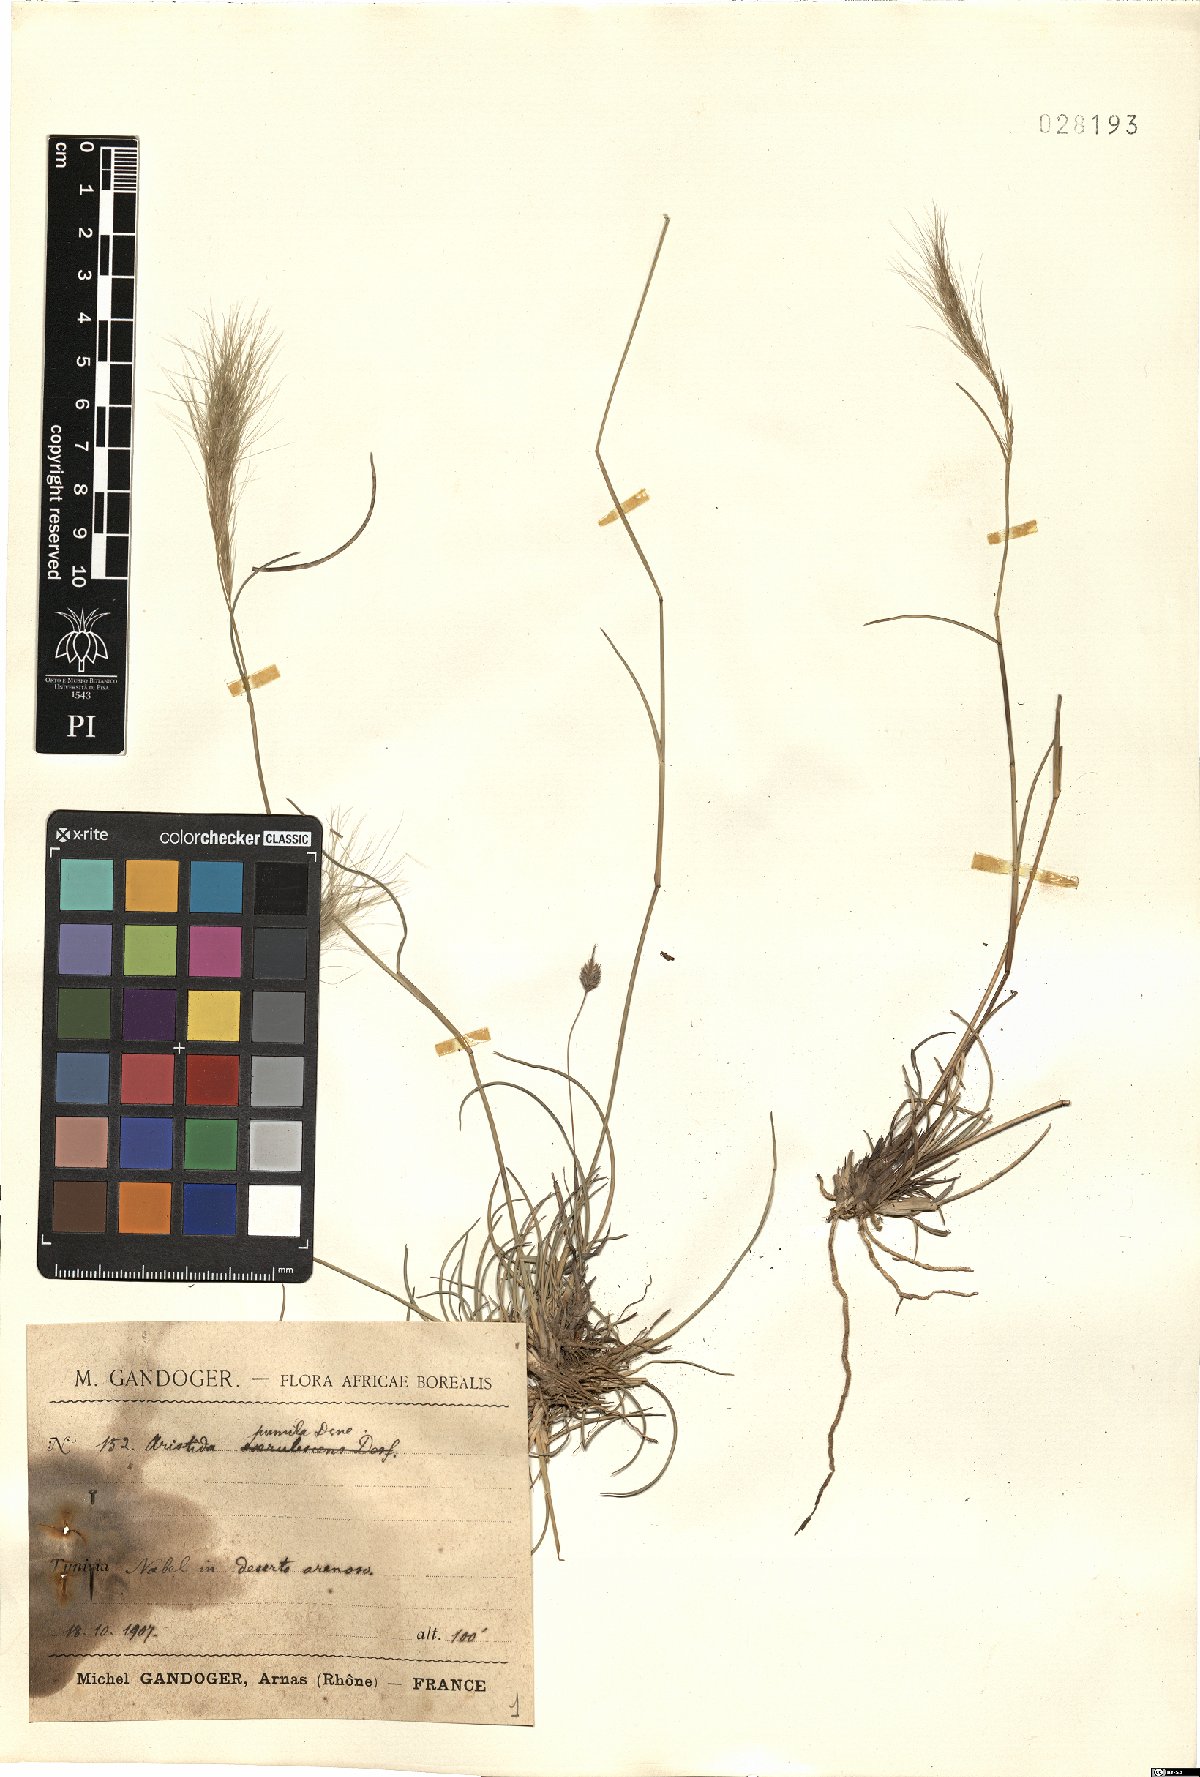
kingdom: Plantae
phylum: Tracheophyta
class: Liliopsida
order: Poales
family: Poaceae
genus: Aristida
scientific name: Aristida adscensionis
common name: Sixweeks threeawn
